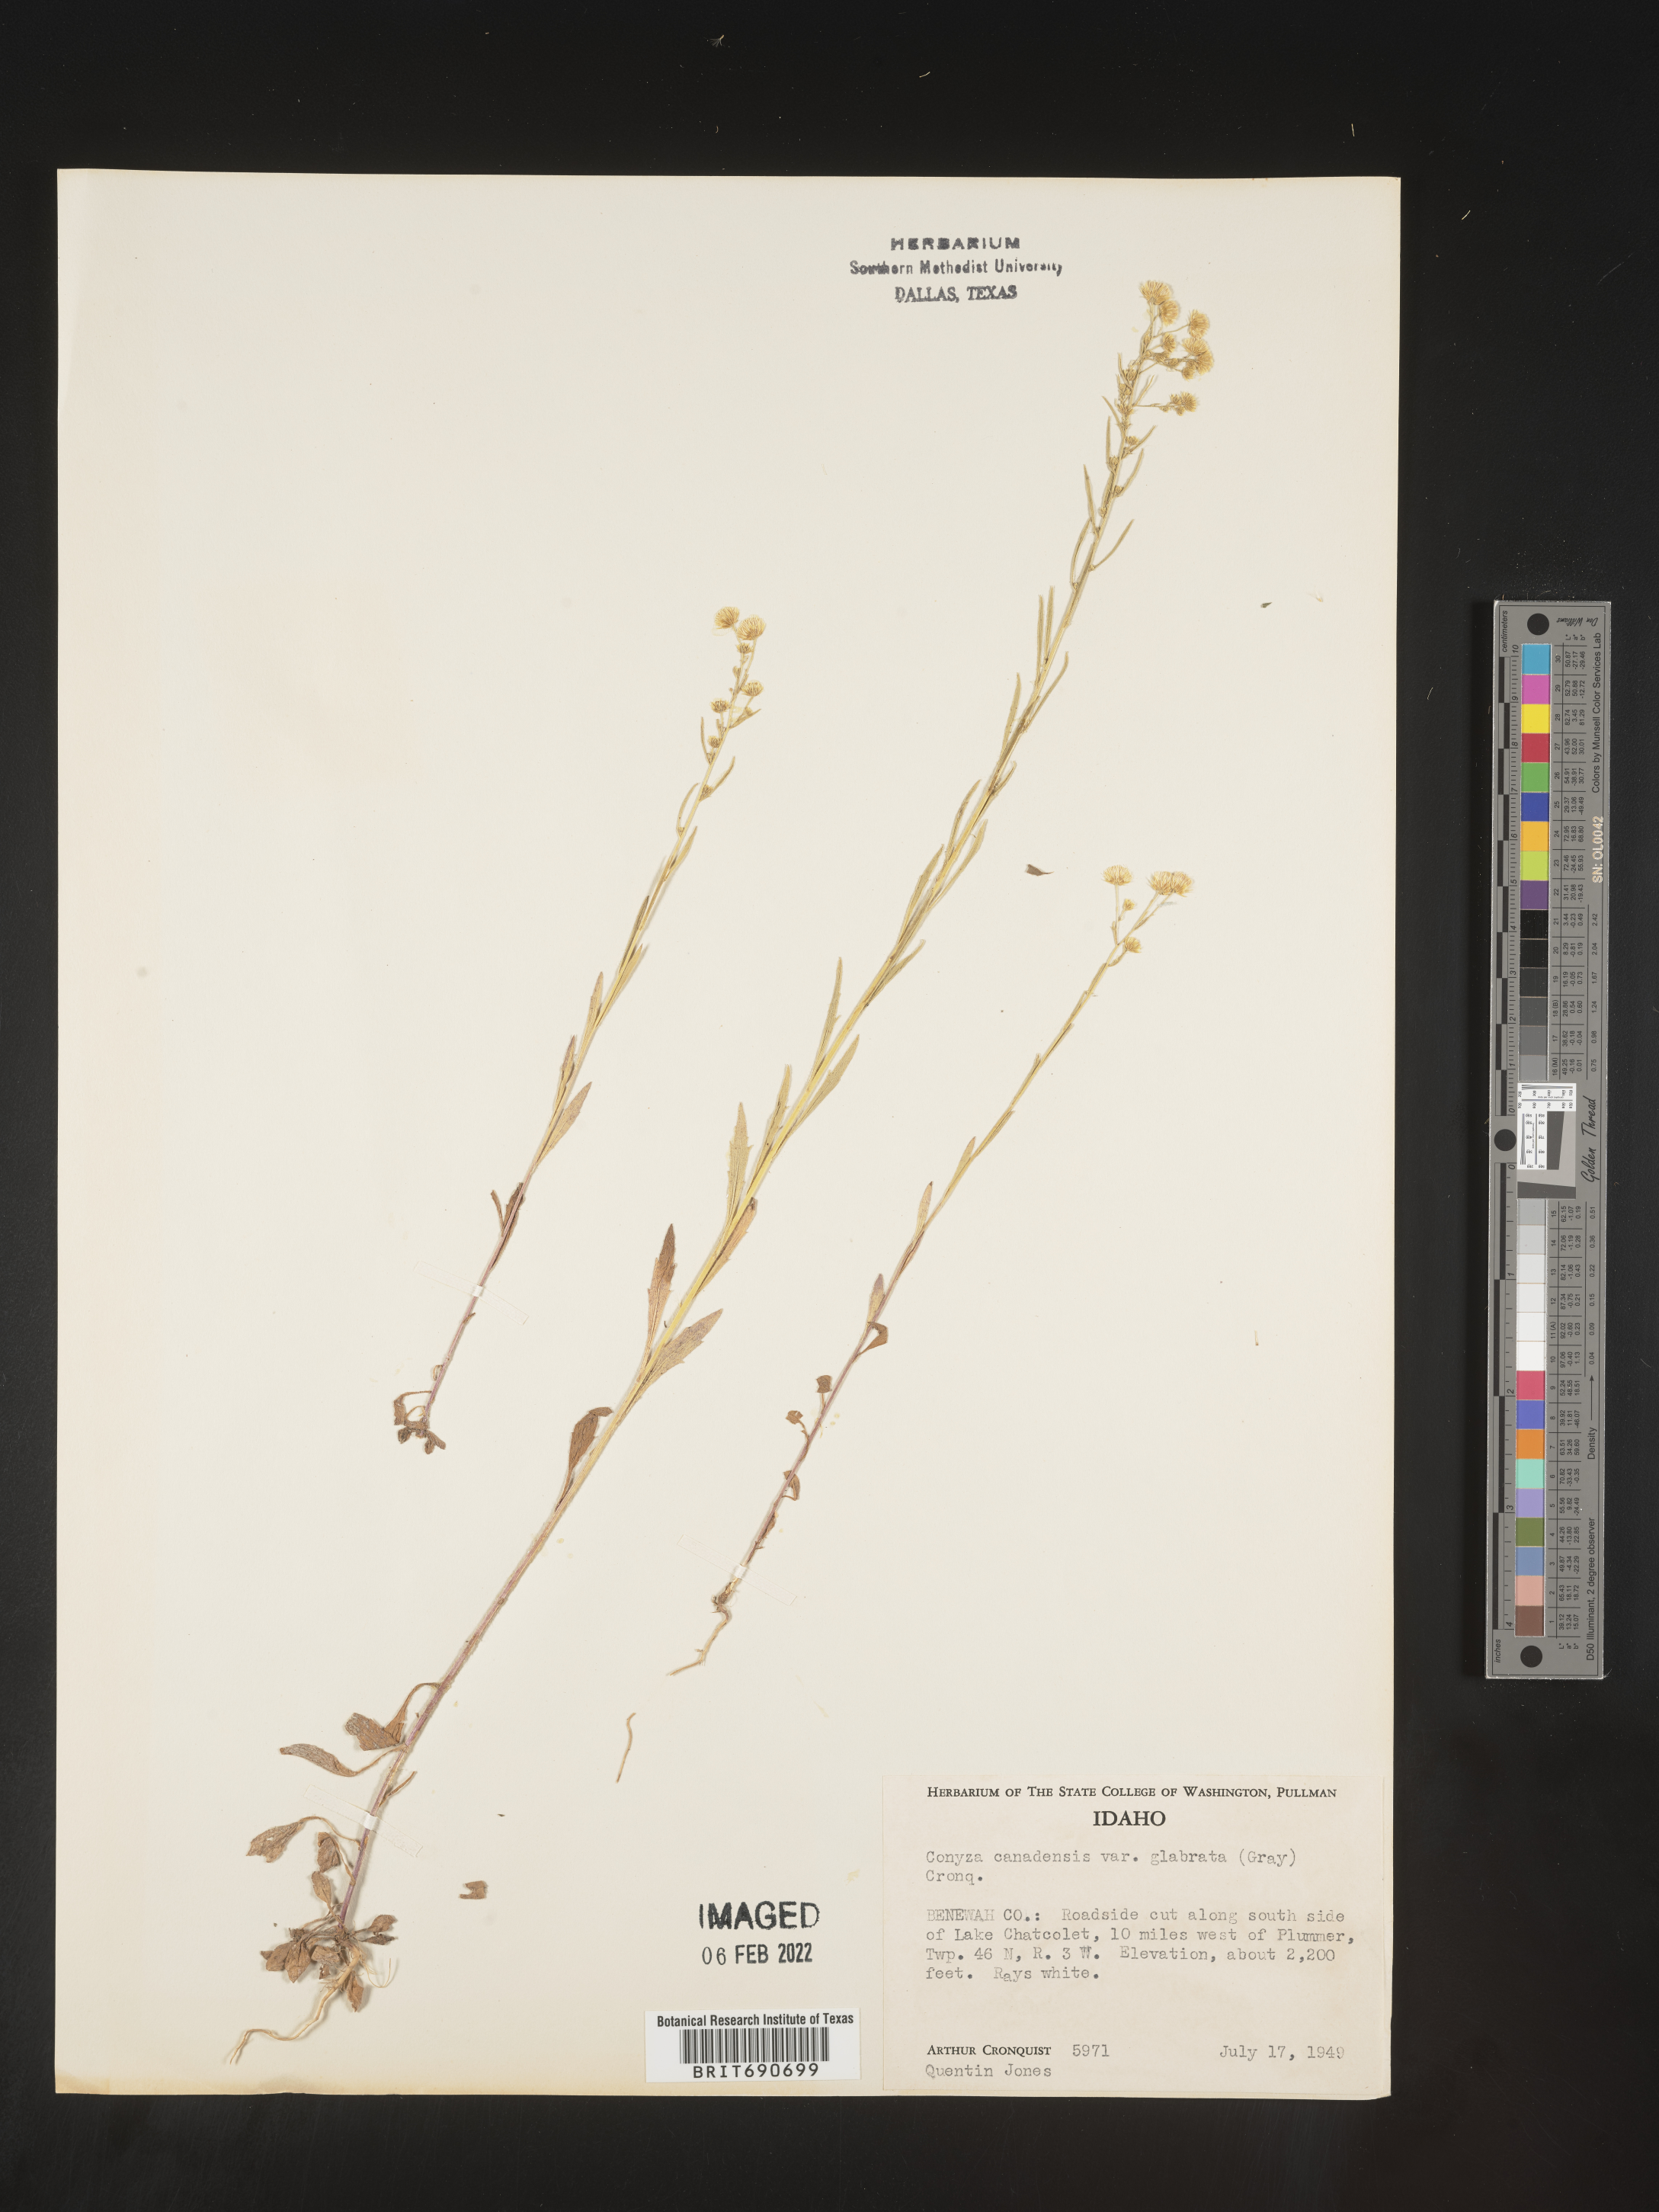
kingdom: Plantae
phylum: Tracheophyta
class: Magnoliopsida
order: Asterales
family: Asteraceae
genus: Erigeron
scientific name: Erigeron canadensis
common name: Canadian fleabane
